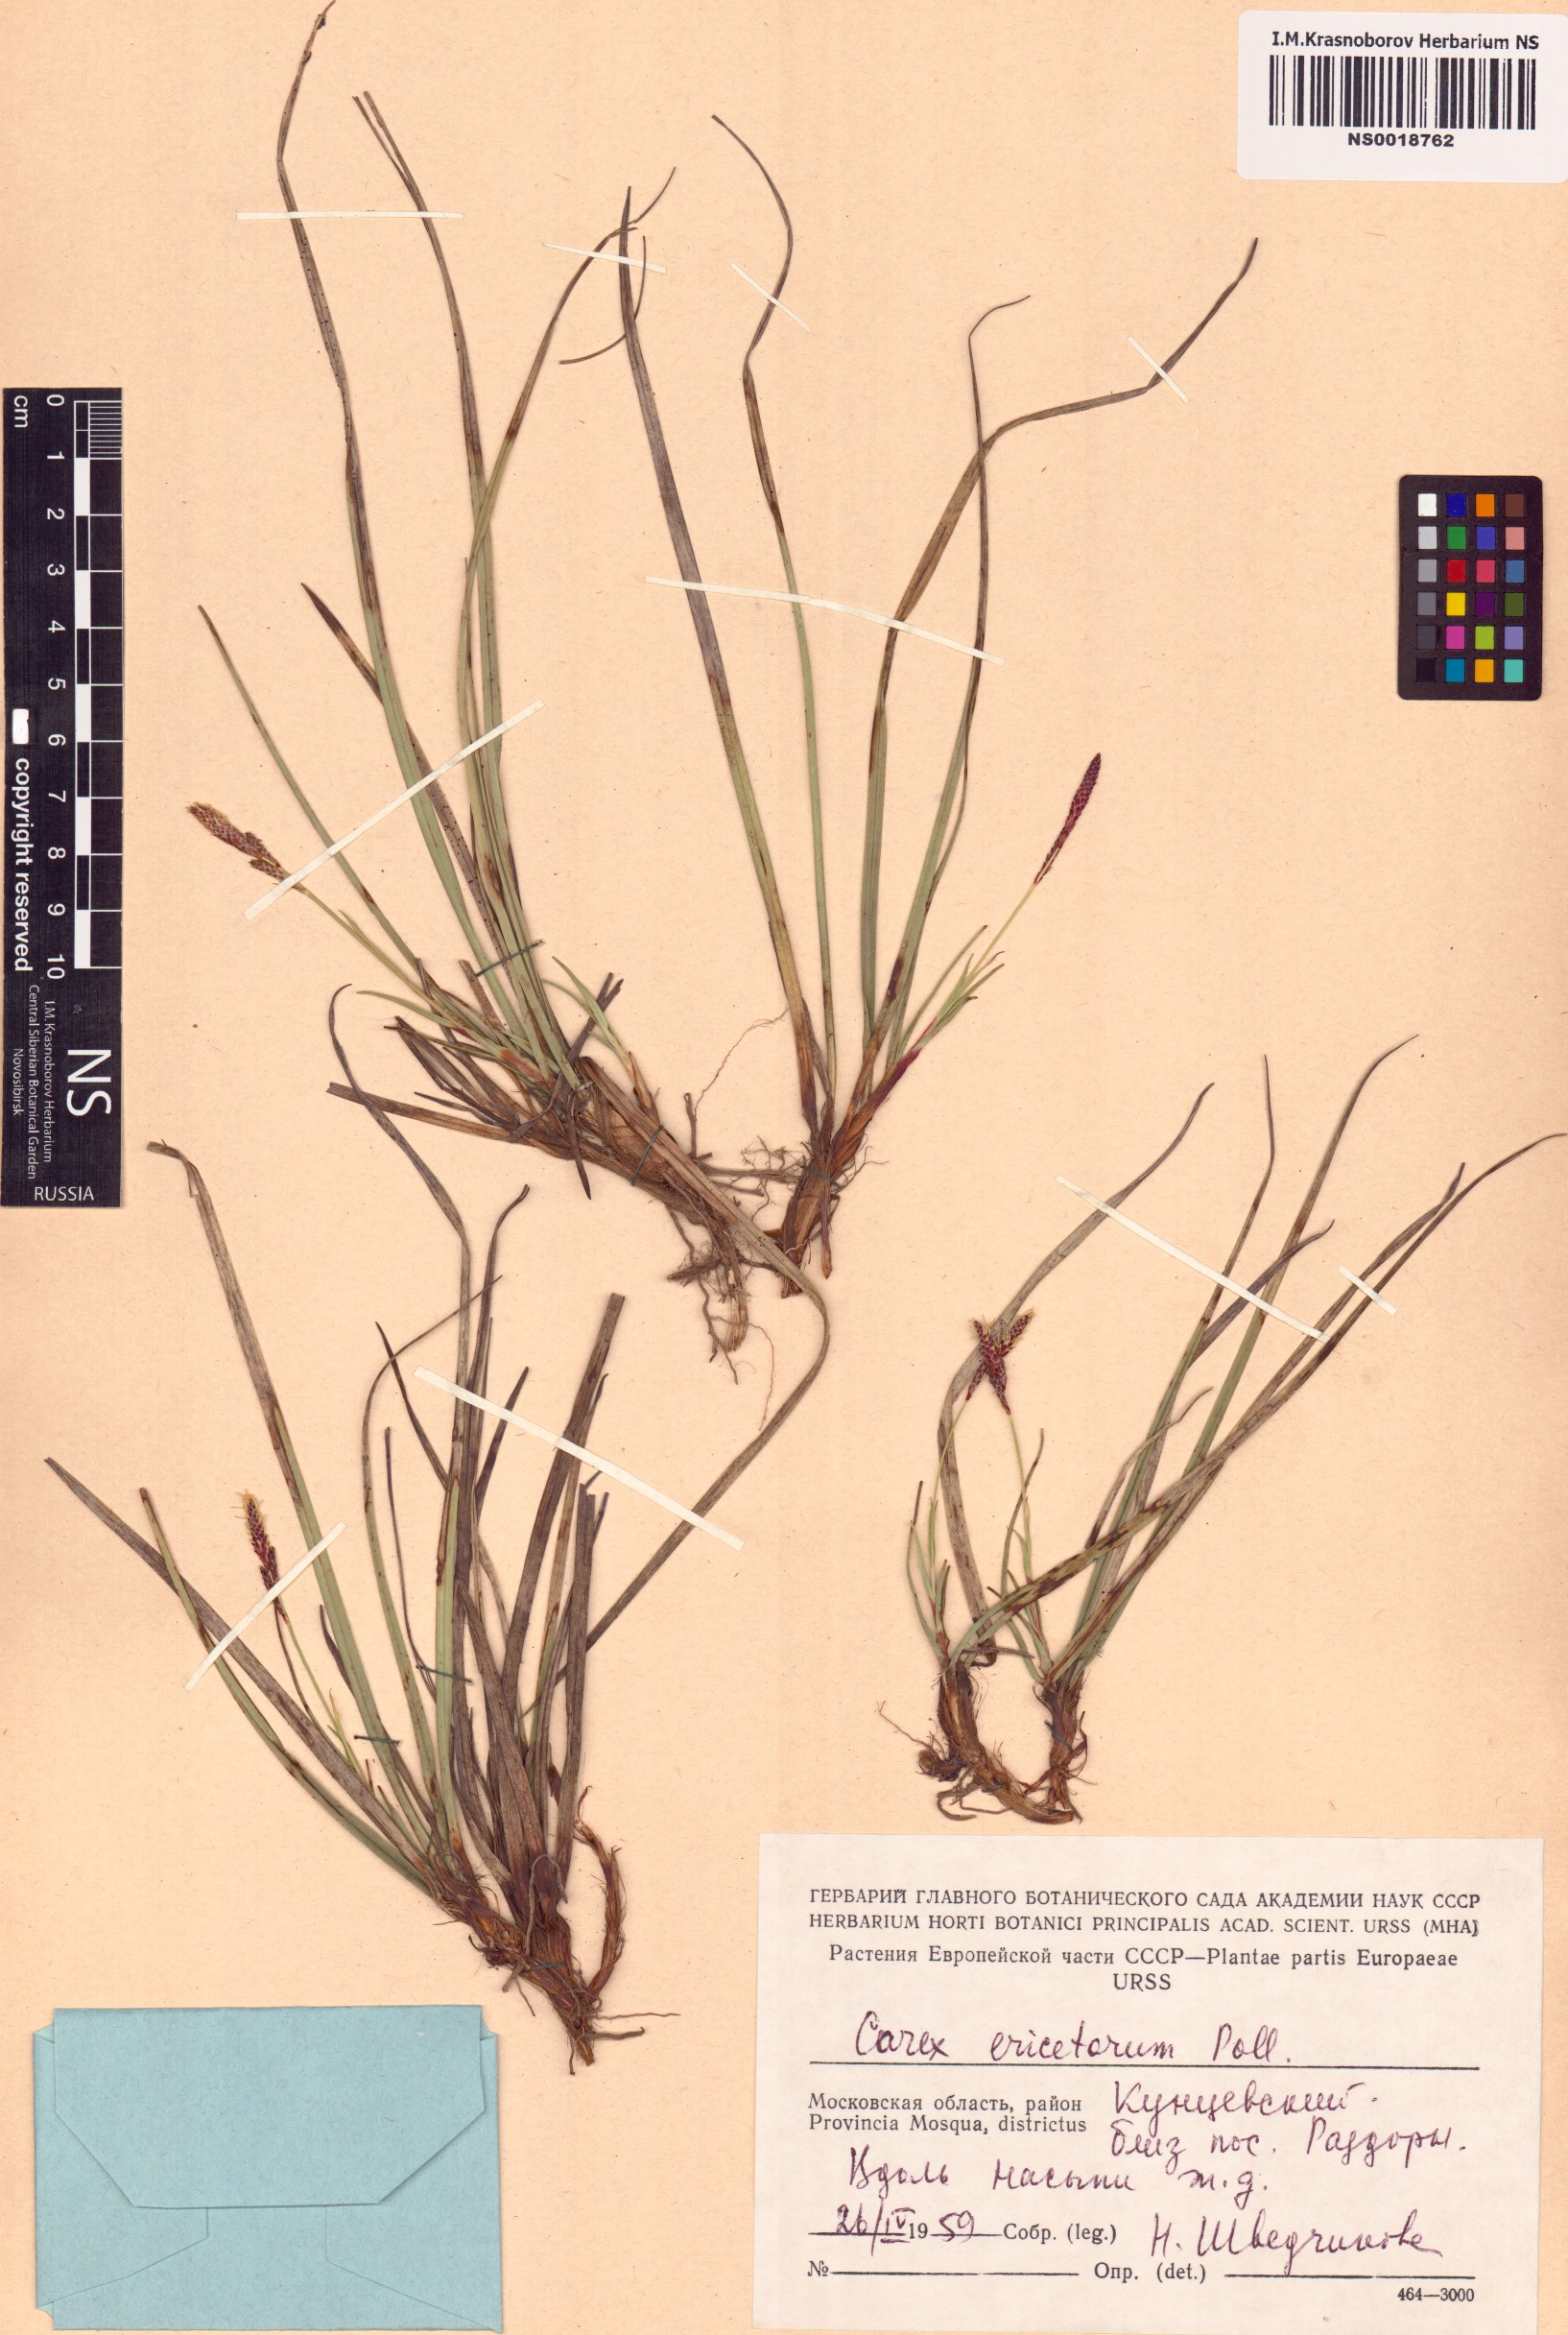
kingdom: Plantae
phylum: Tracheophyta
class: Liliopsida
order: Poales
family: Cyperaceae
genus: Carex
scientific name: Carex ericetorum
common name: Rare spring-sedge
